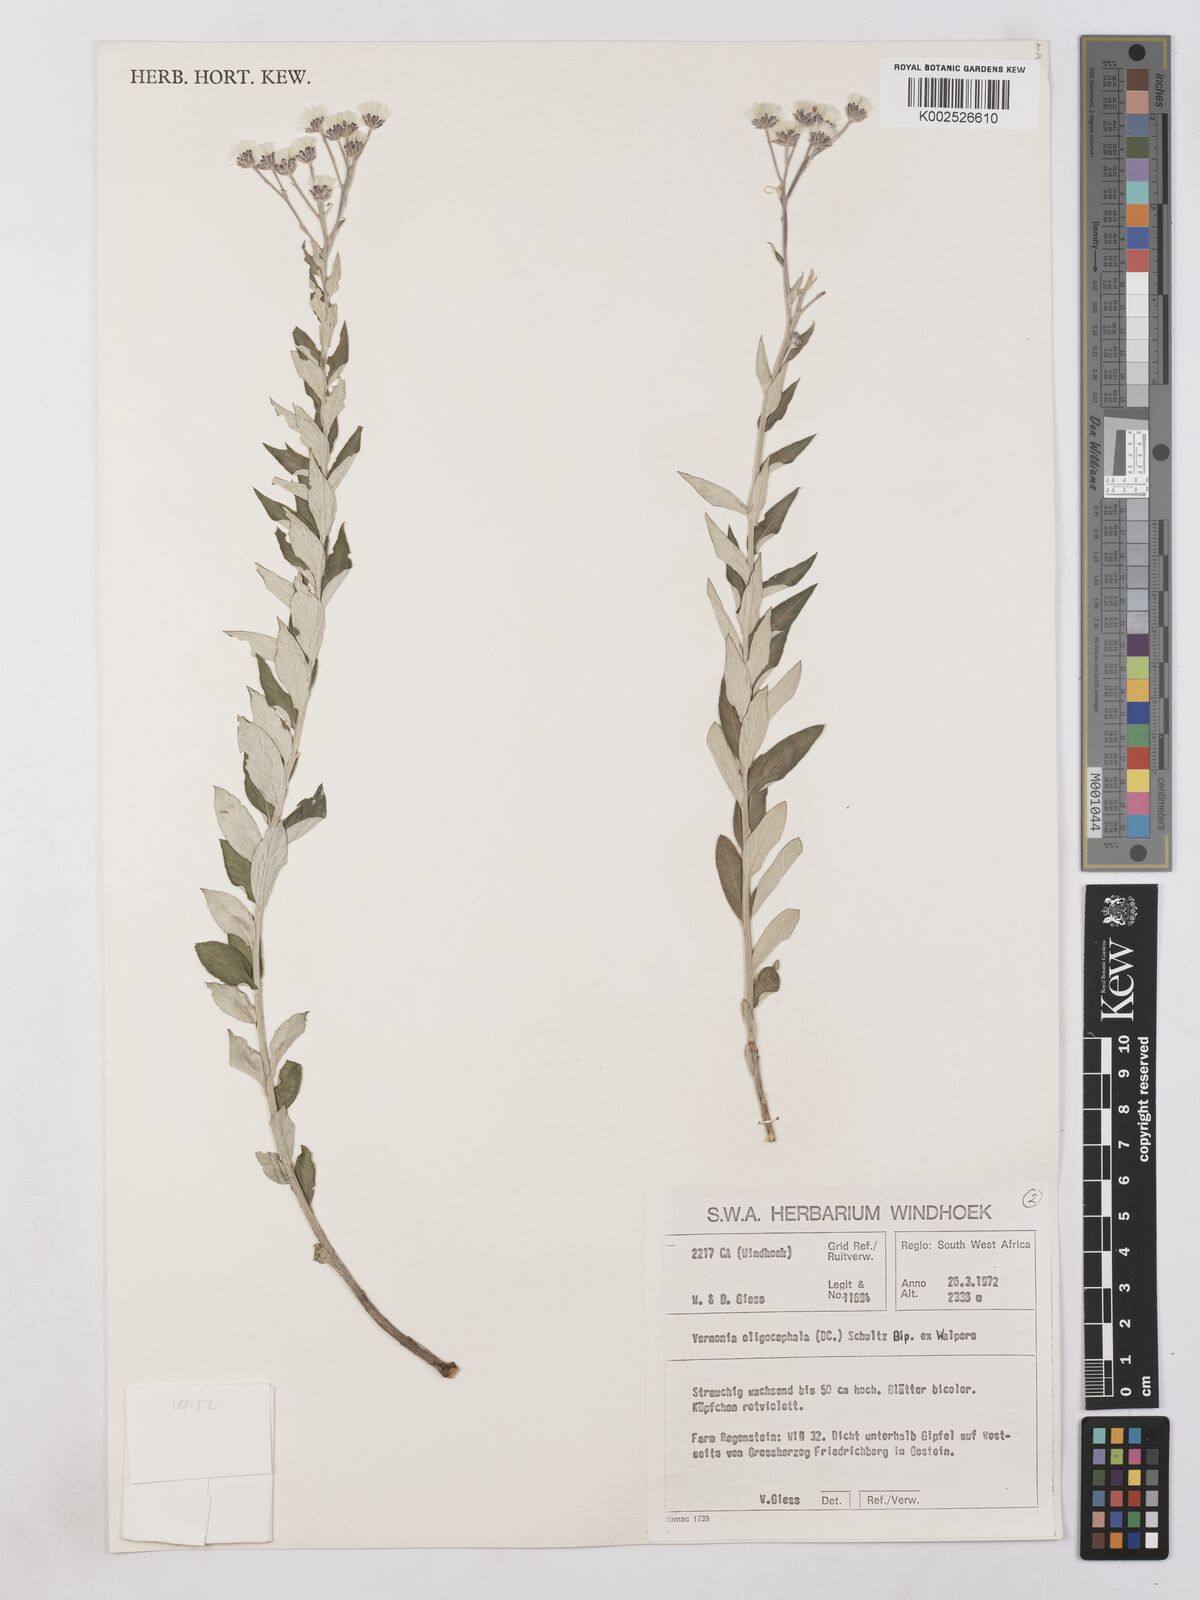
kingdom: Plantae
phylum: Tracheophyta
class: Magnoliopsida
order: Asterales
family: Asteraceae
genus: Hilliardiella
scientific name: Hilliardiella oligocephala
